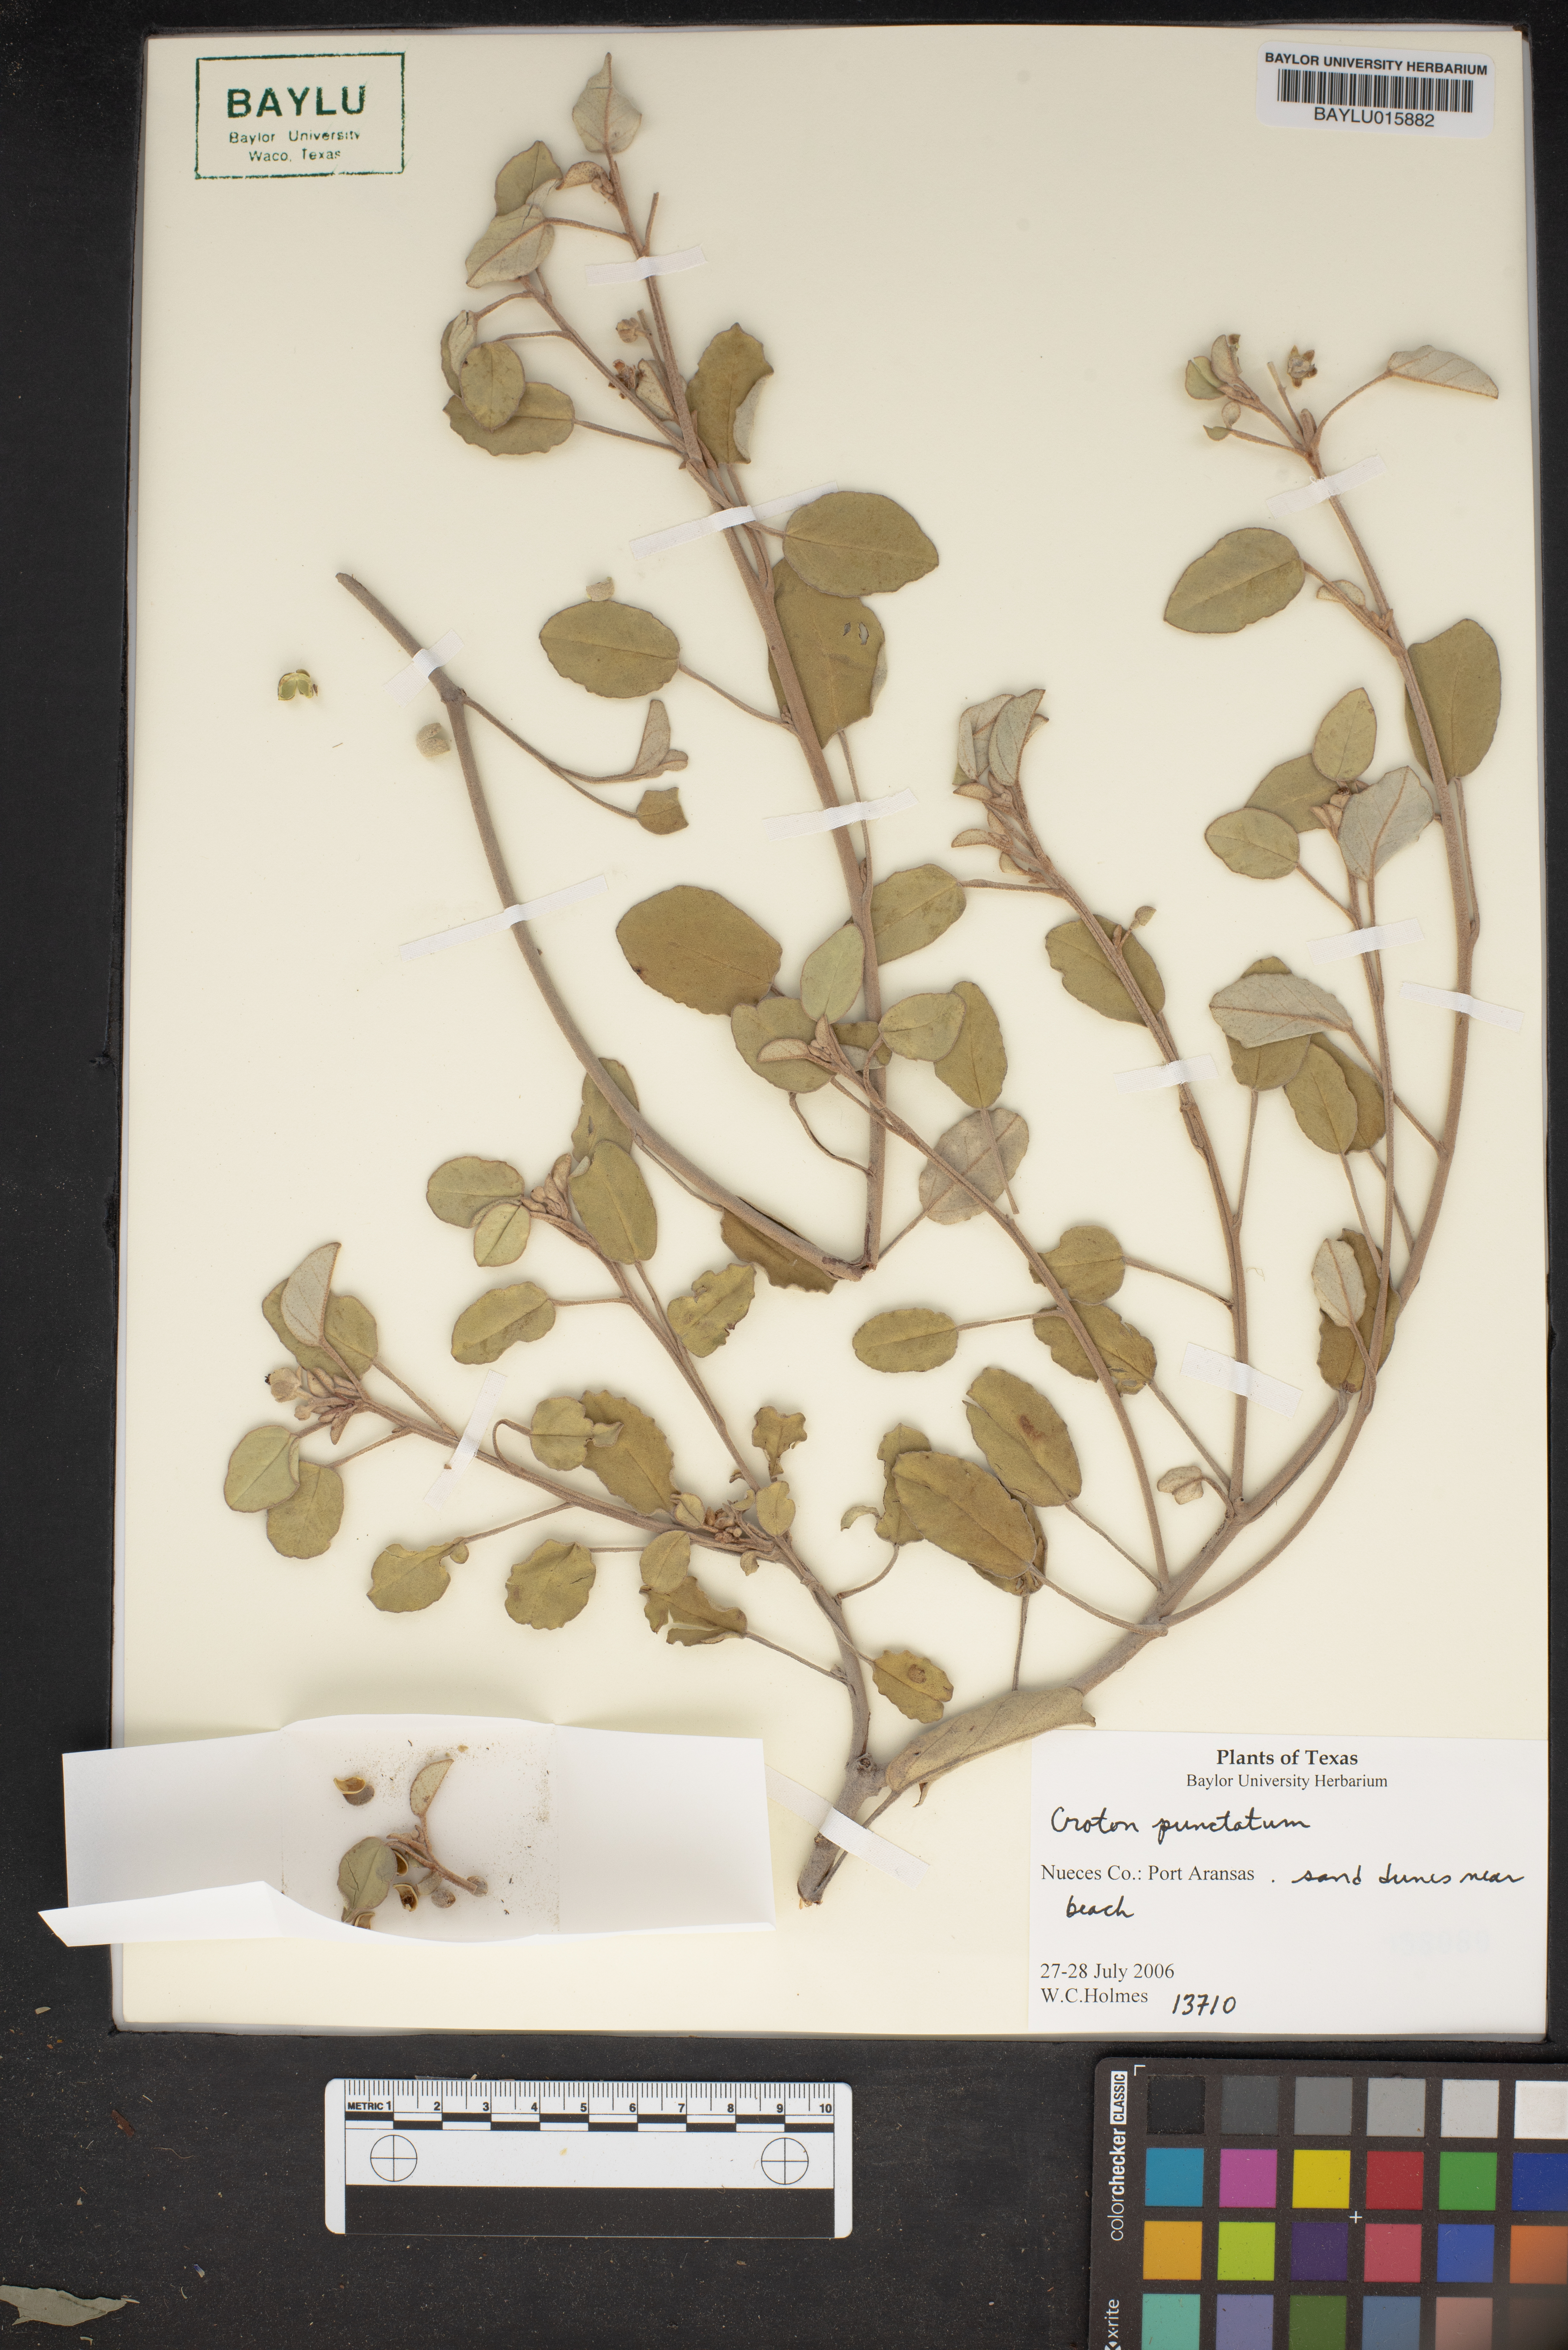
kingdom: Plantae
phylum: Tracheophyta
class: Magnoliopsida
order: Malpighiales
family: Euphorbiaceae
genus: Croton
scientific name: Croton punctatum
